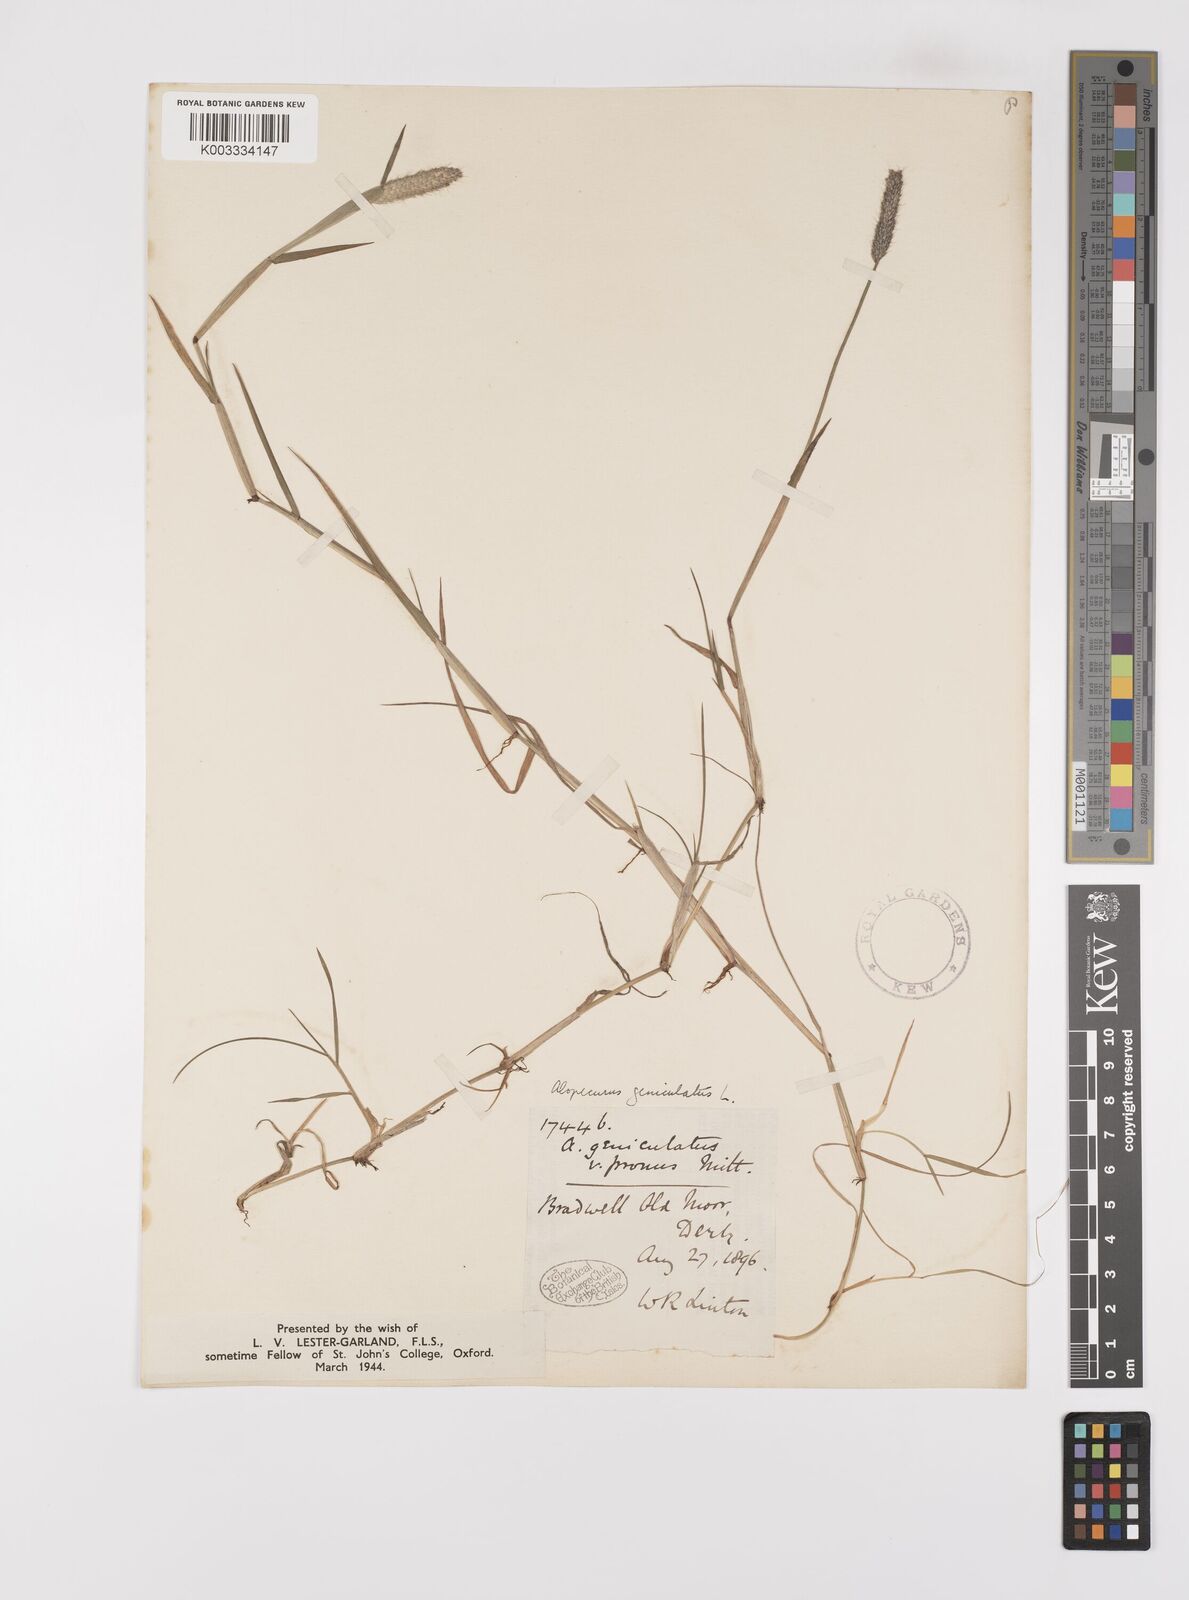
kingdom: Plantae
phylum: Tracheophyta
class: Liliopsida
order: Poales
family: Poaceae
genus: Alopecurus
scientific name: Alopecurus geniculatus
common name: Water foxtail
